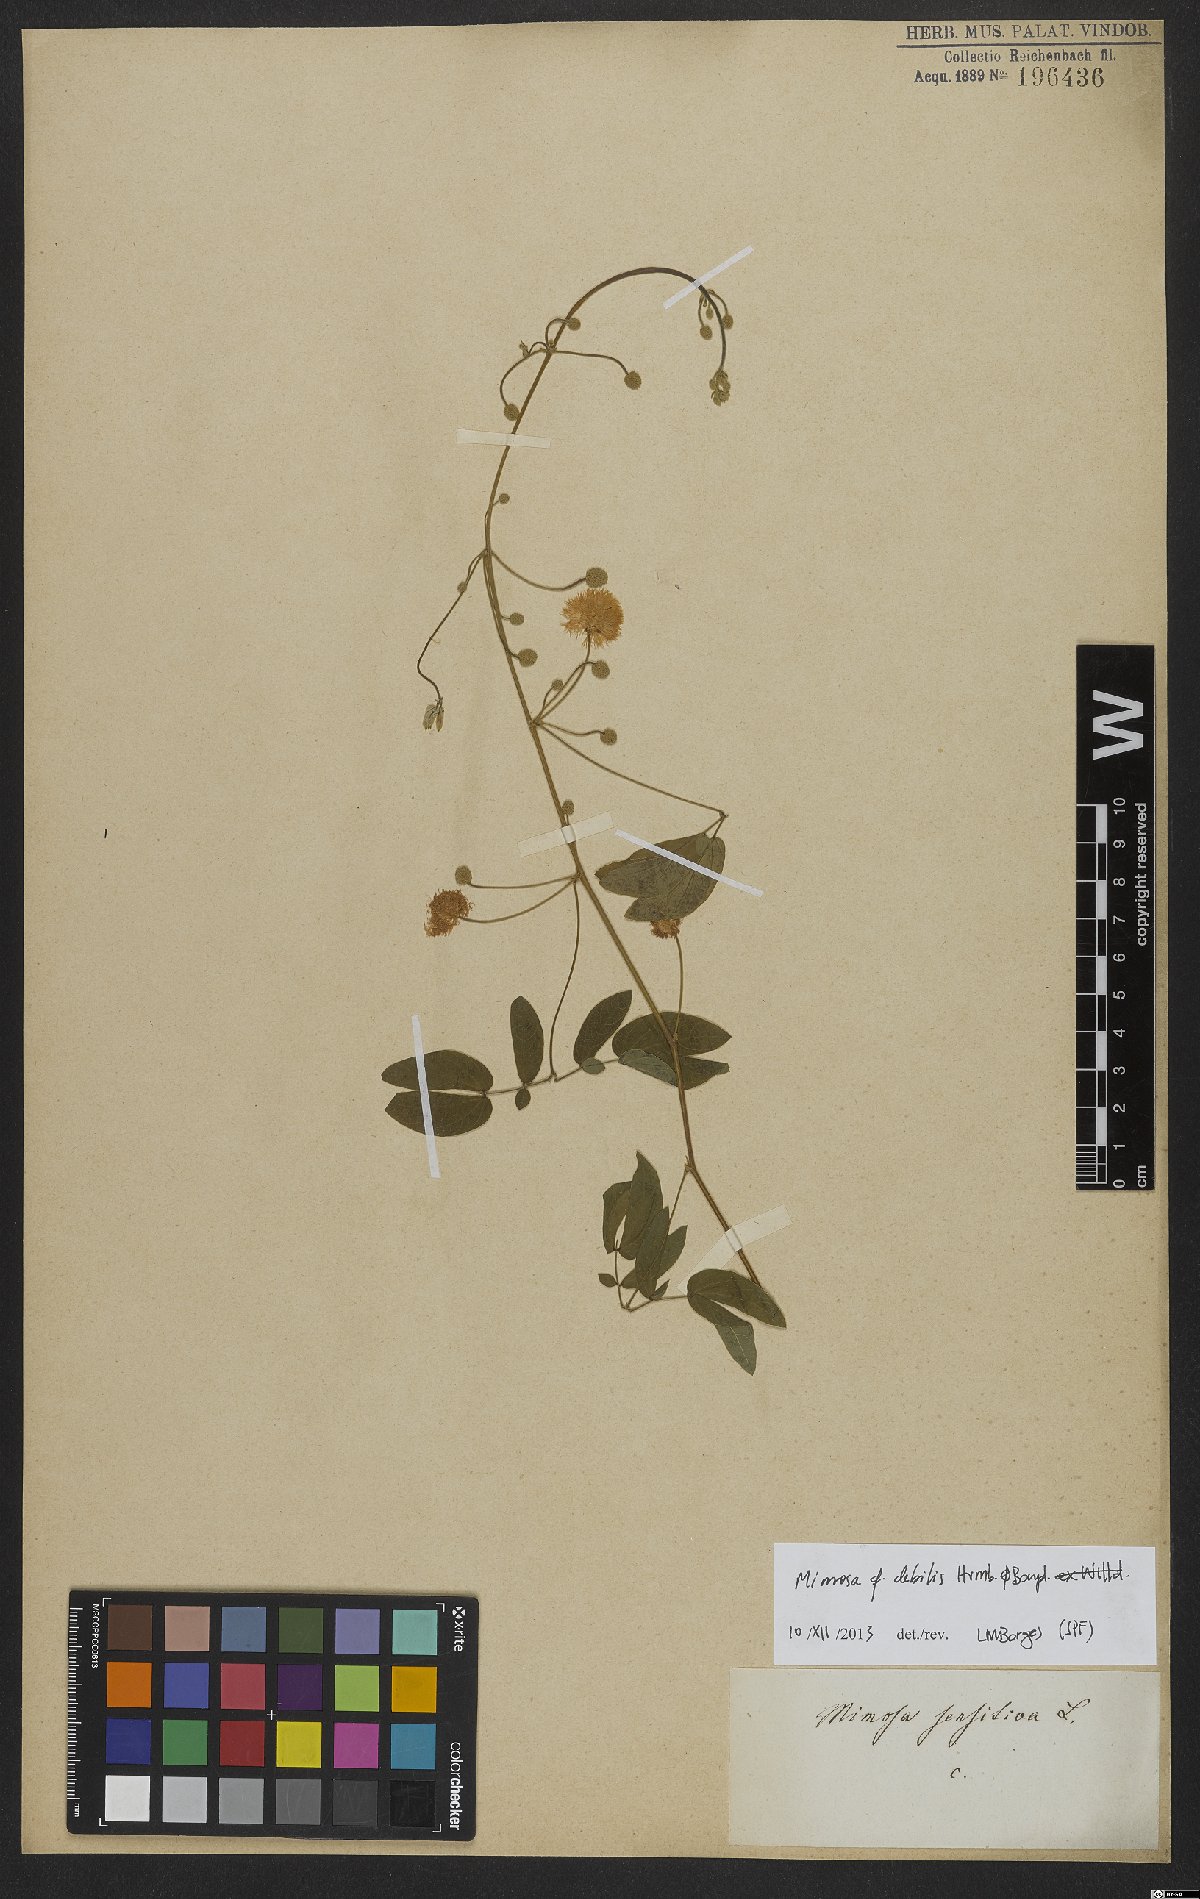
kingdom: Plantae
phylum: Tracheophyta
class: Magnoliopsida
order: Fabales
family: Fabaceae
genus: Mimosa
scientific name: Mimosa debilis
